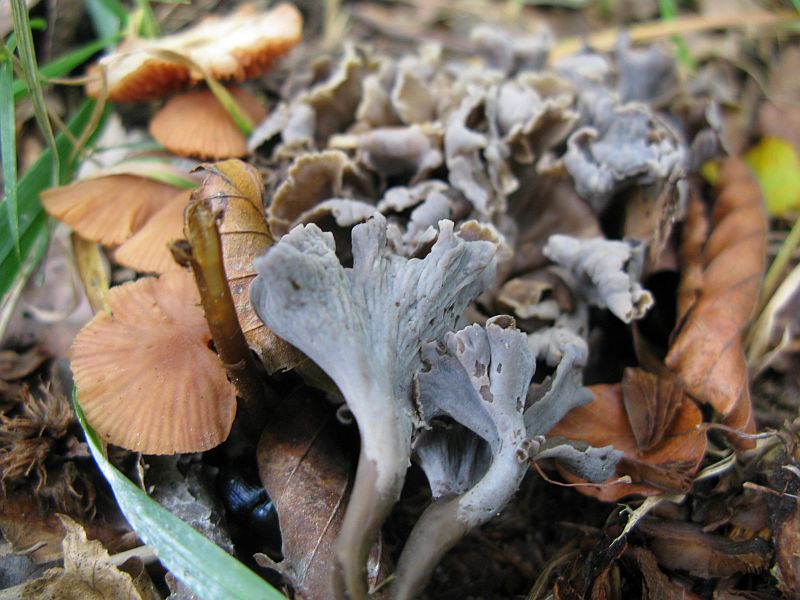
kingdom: Fungi
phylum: Basidiomycota
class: Agaricomycetes
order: Cantharellales
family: Hydnaceae
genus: Craterellus
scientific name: Craterellus undulatus
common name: liden kantarel
